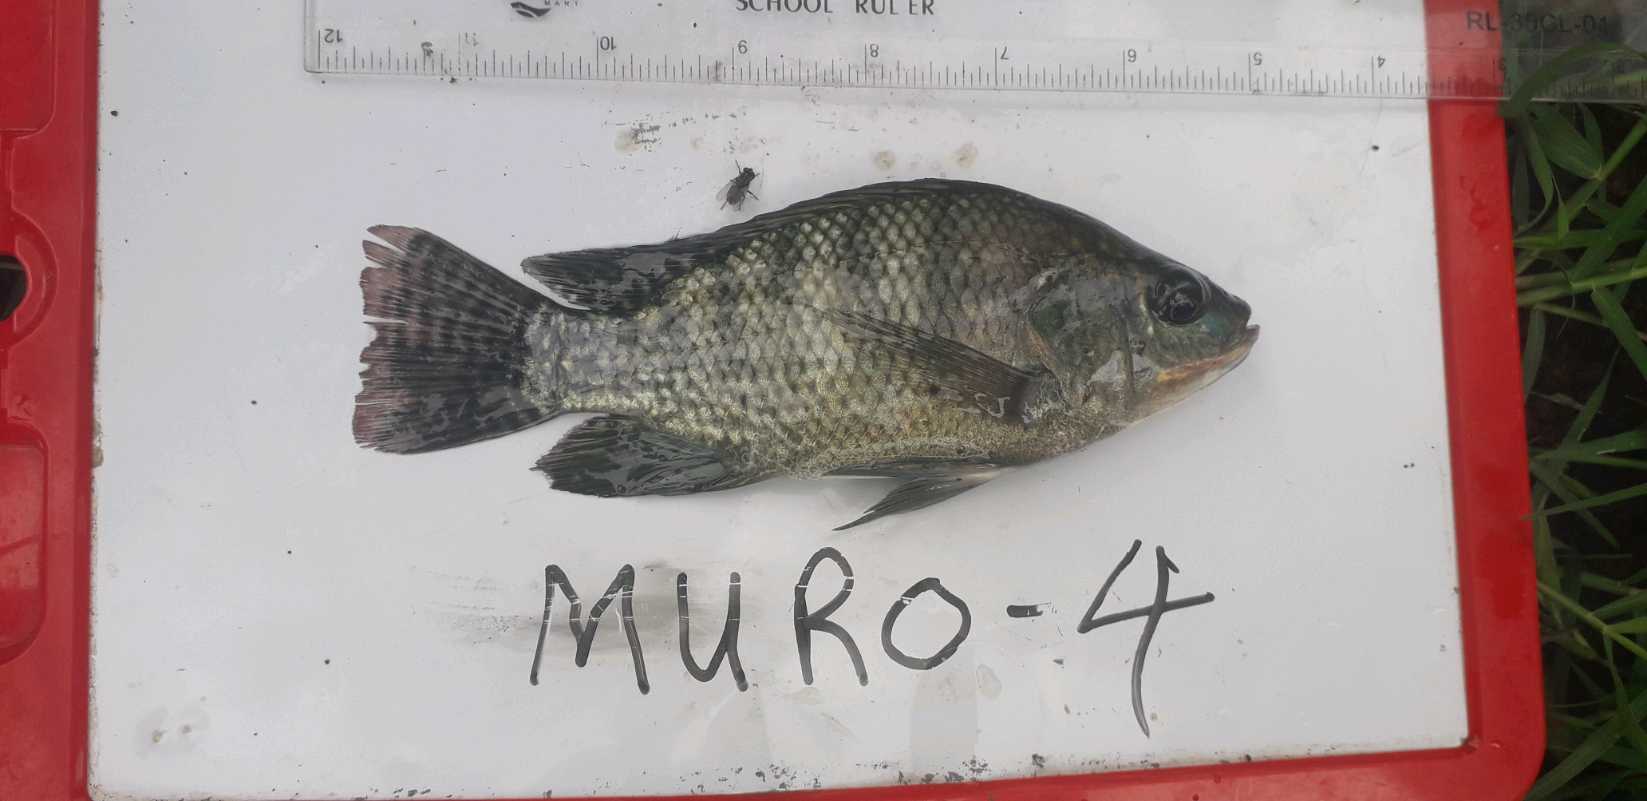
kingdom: Animalia
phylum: Chordata
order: Perciformes
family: Cichlidae
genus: Oreochromis
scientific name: Oreochromis niloticus
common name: Nile tilapia
